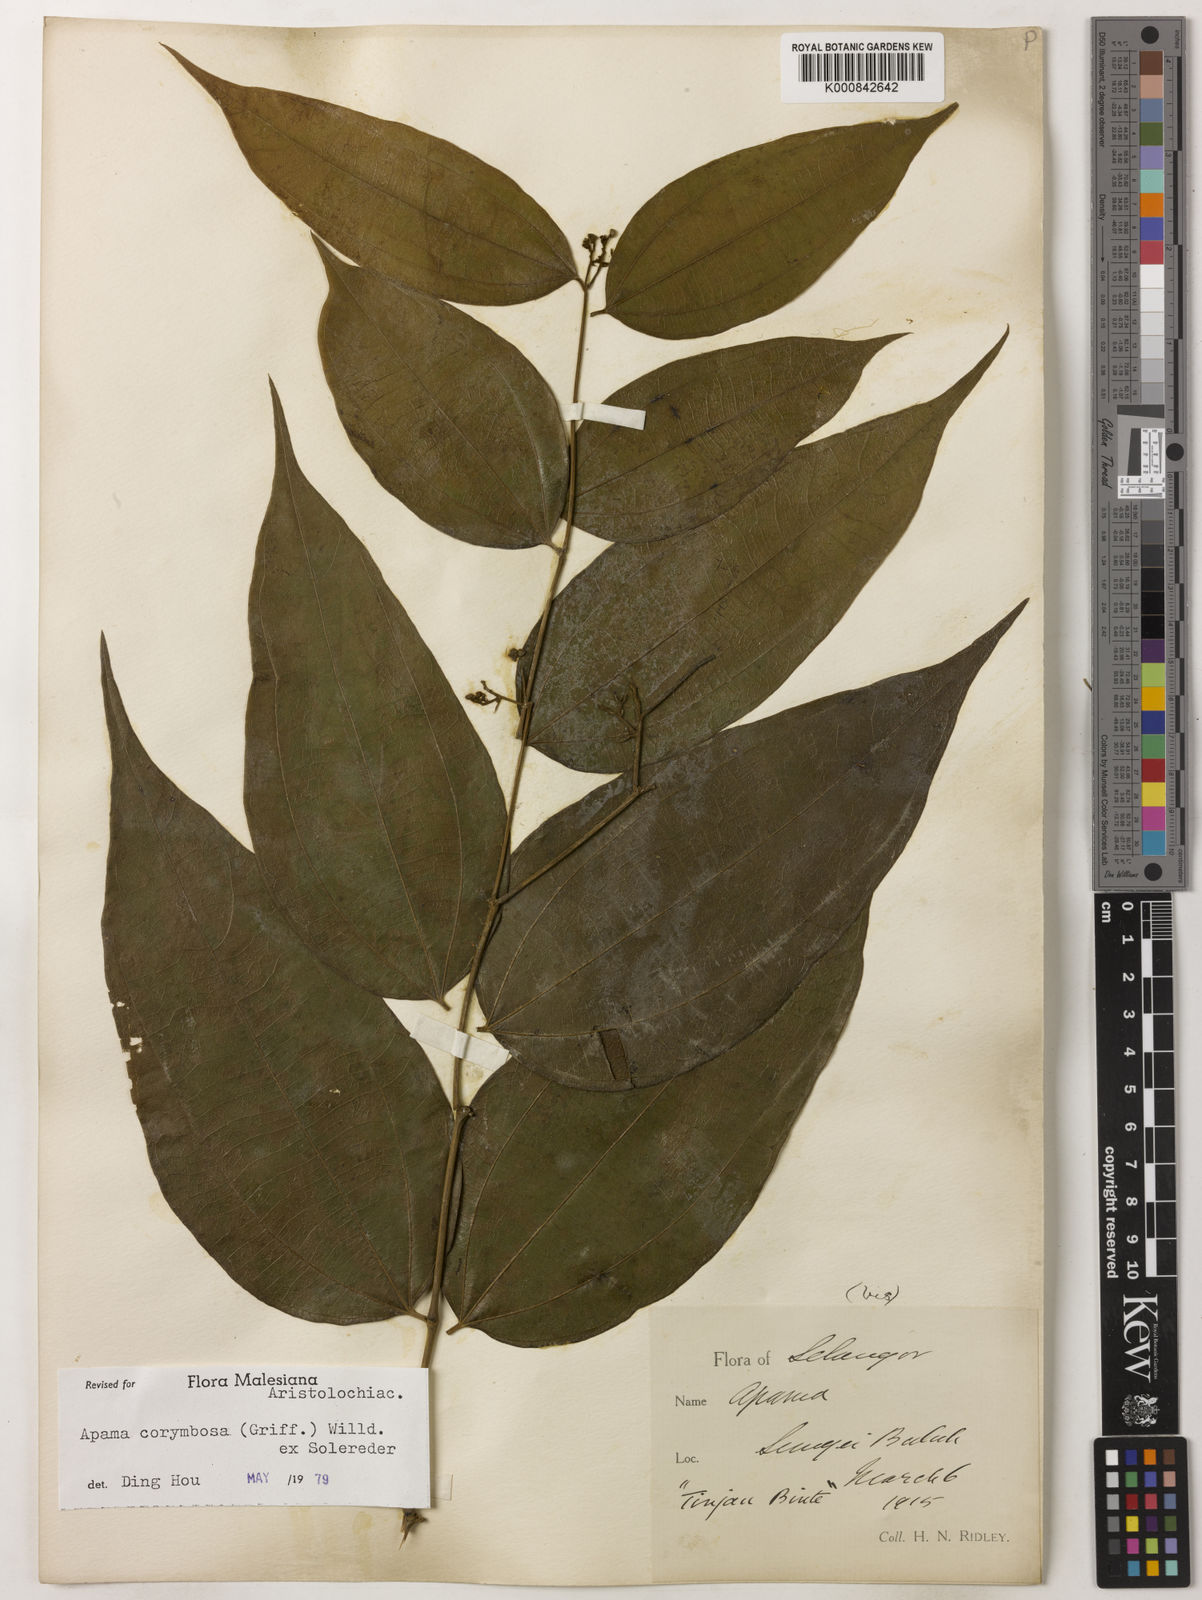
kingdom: Plantae
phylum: Tracheophyta
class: Magnoliopsida
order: Piperales
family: Aristolochiaceae
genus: Thottea
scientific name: Thottea piperiformis
